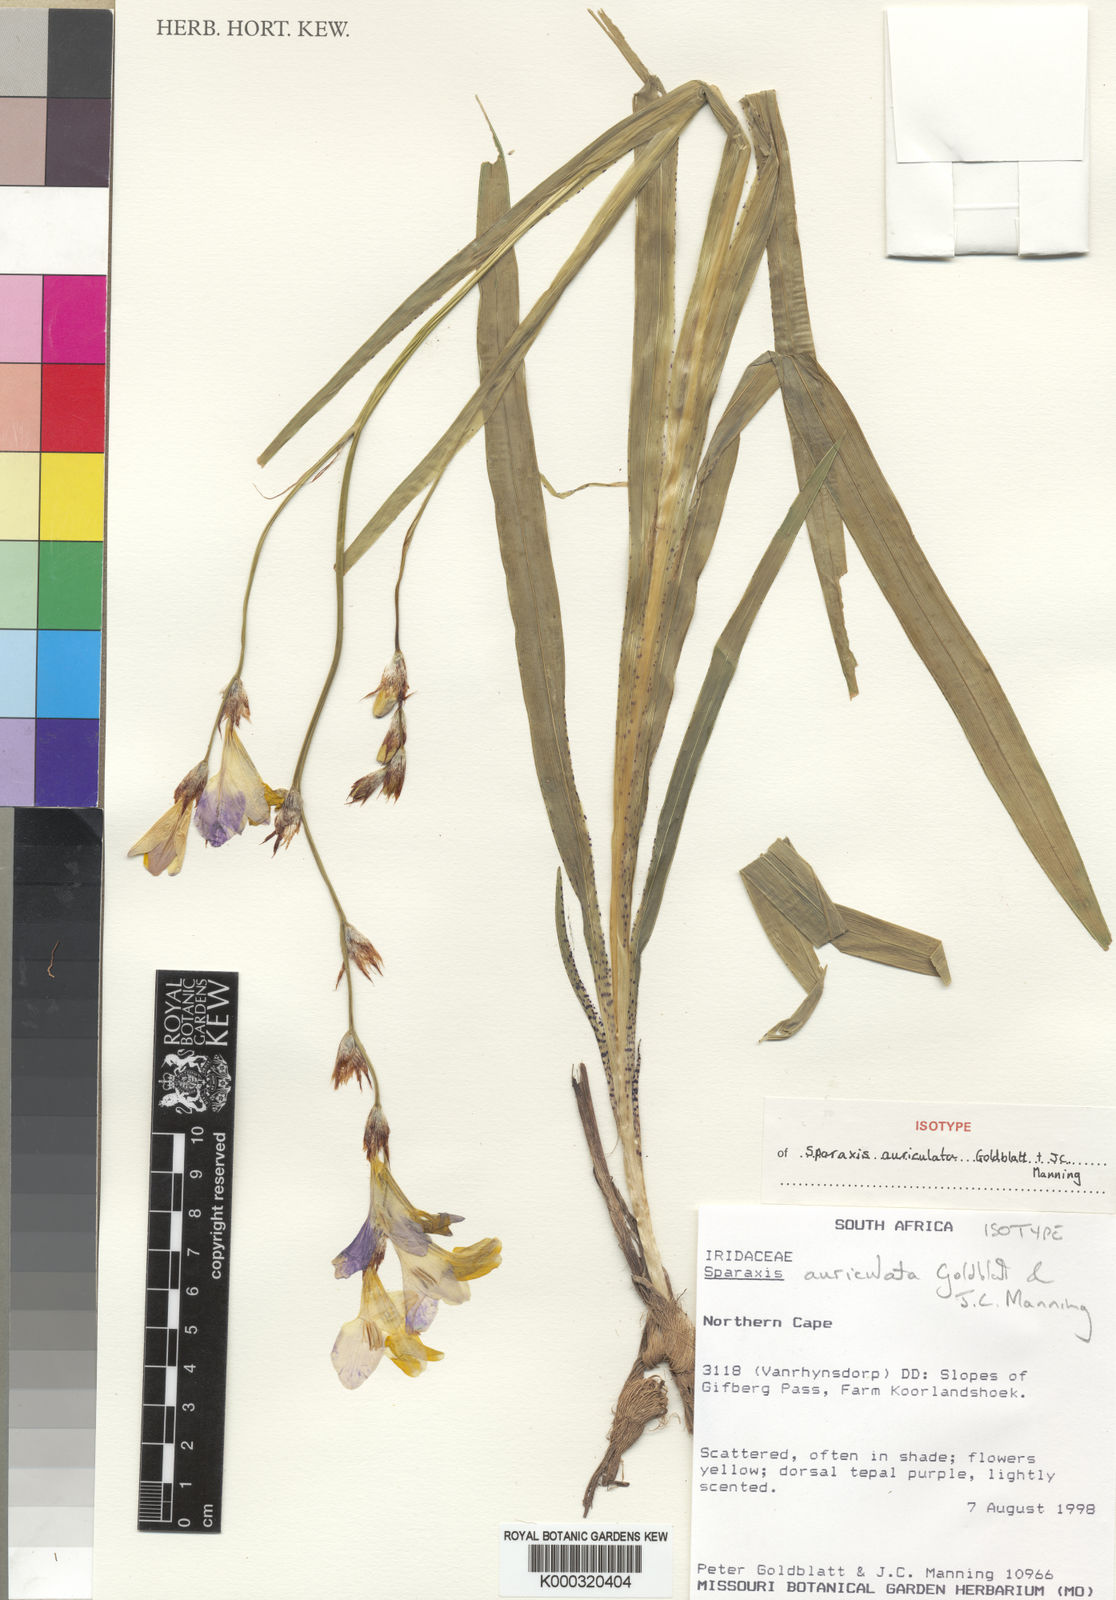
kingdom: Plantae
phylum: Tracheophyta
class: Liliopsida
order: Asparagales
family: Iridaceae
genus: Sparaxis
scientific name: Sparaxis auriculata
